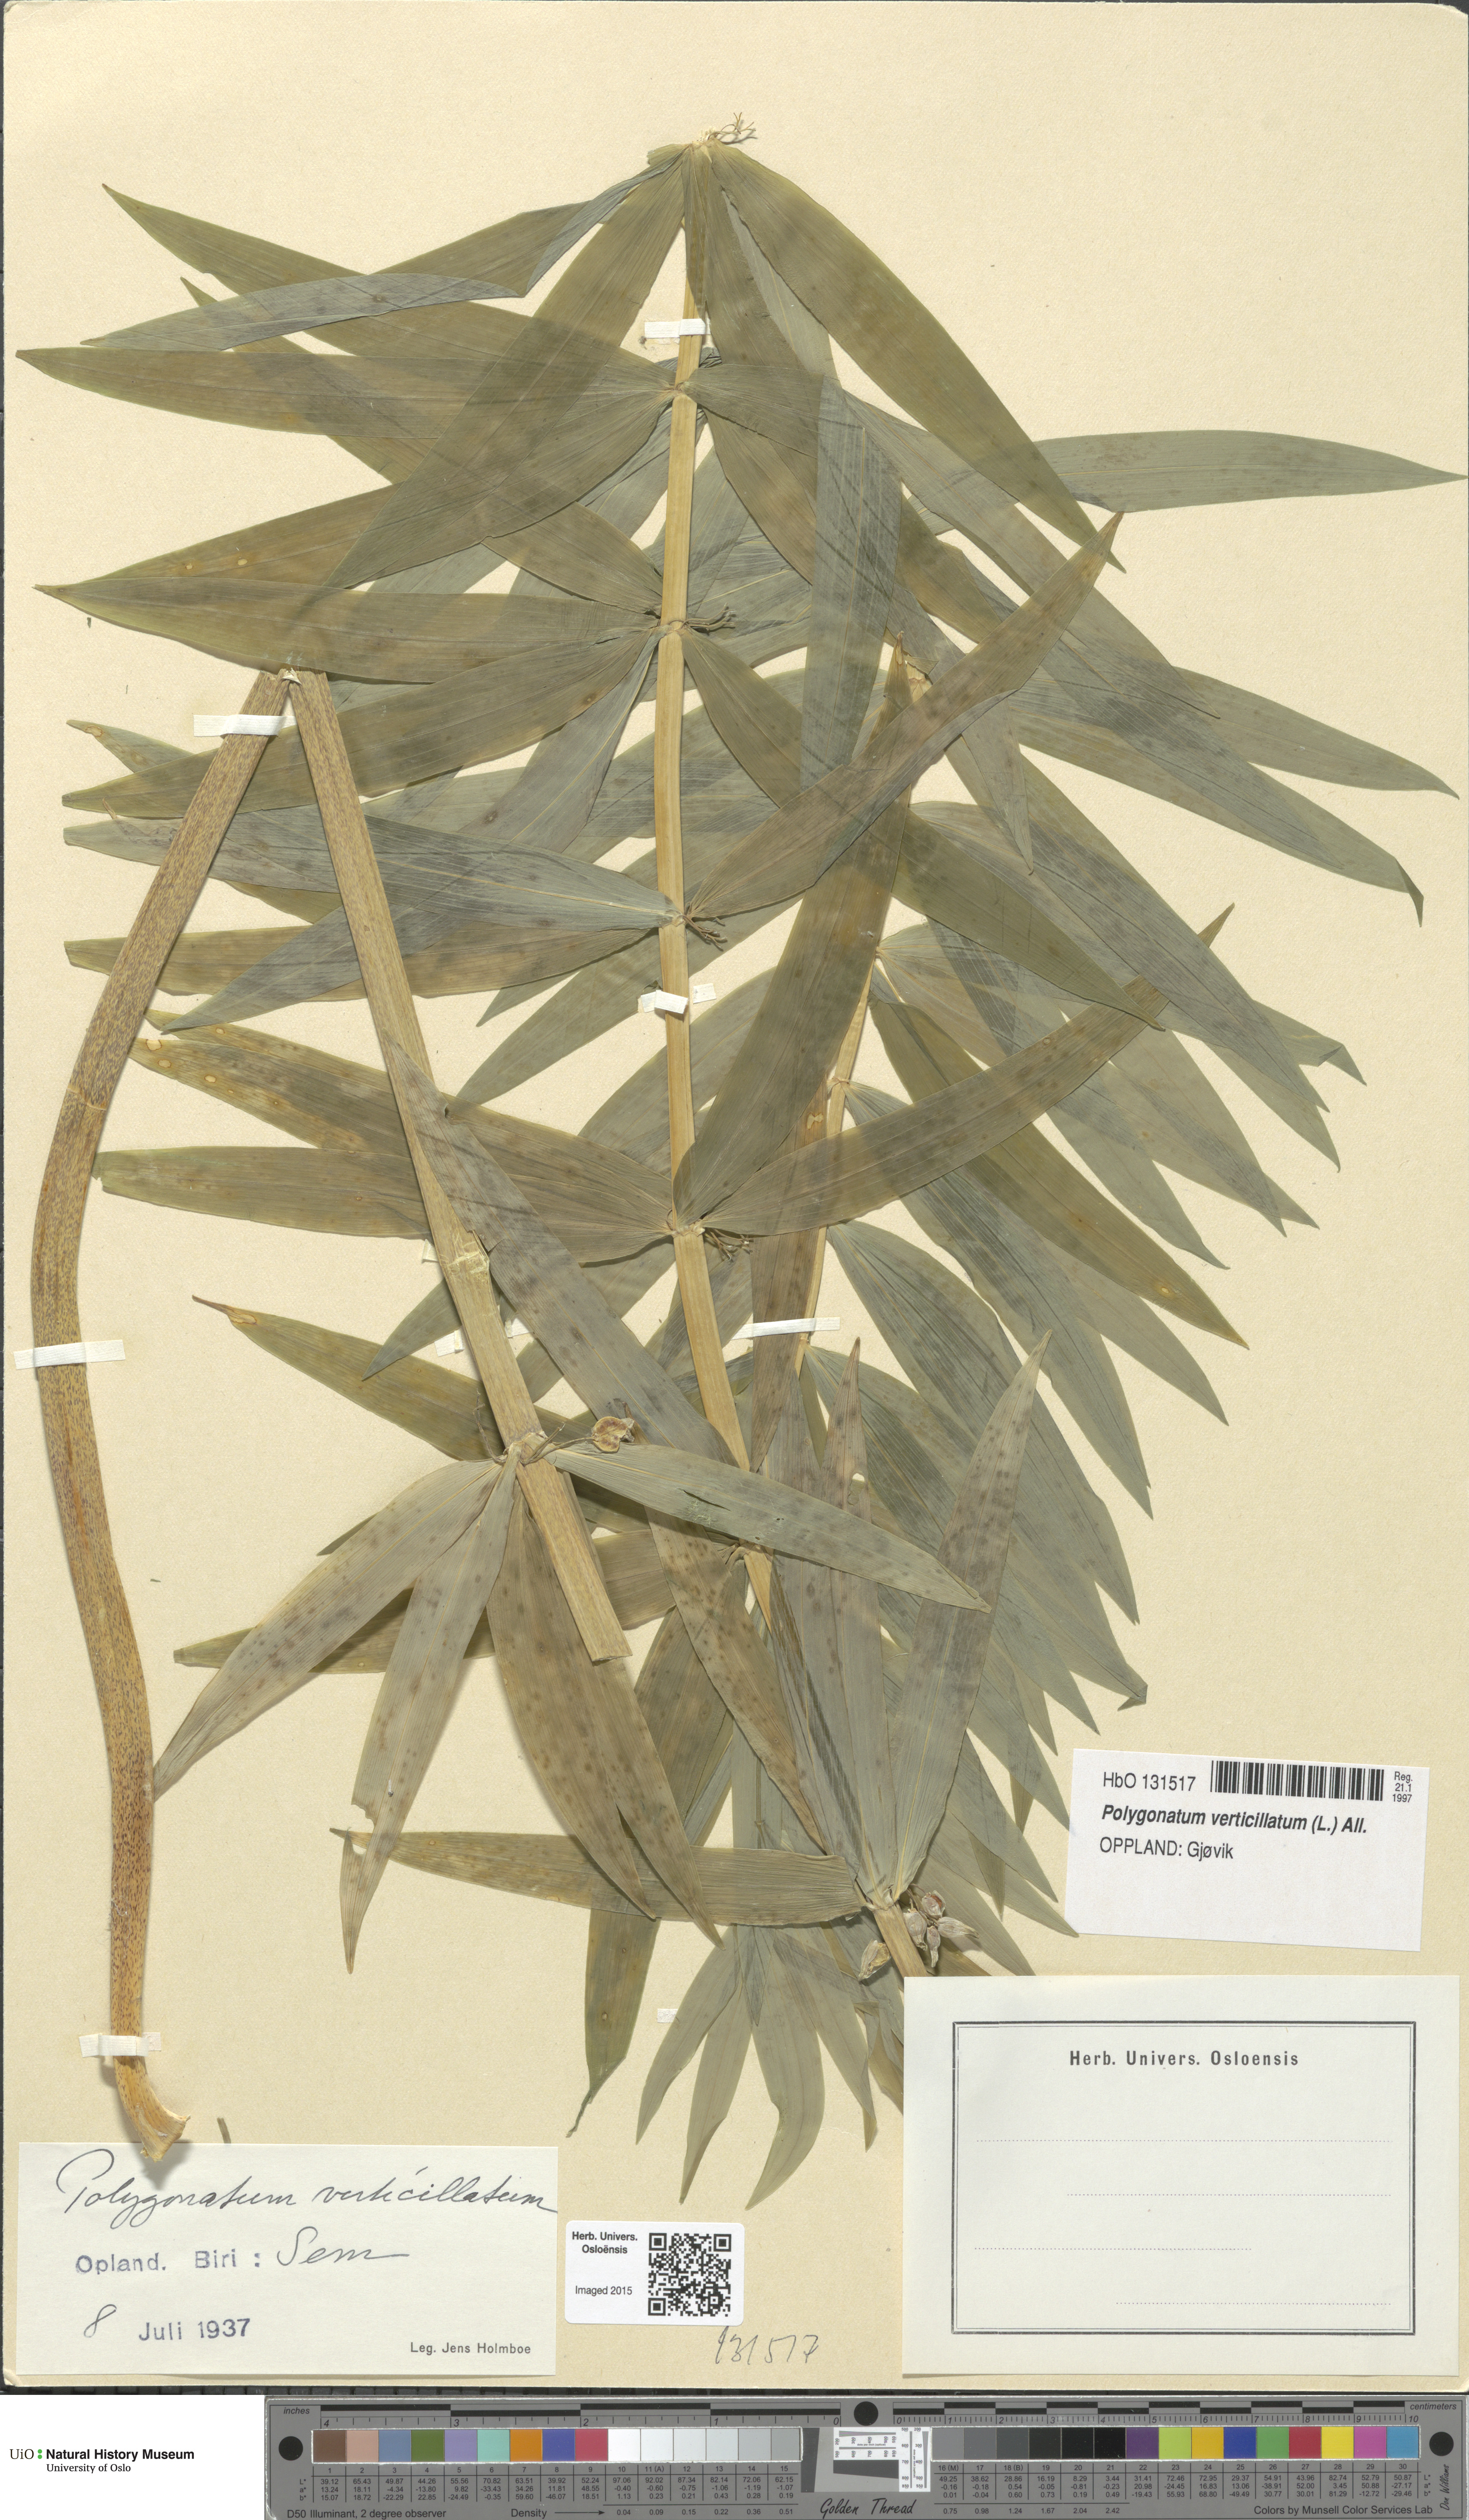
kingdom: Plantae
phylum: Tracheophyta
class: Liliopsida
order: Asparagales
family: Asparagaceae
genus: Polygonatum
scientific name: Polygonatum verticillatum
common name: Whorled solomon's-seal
